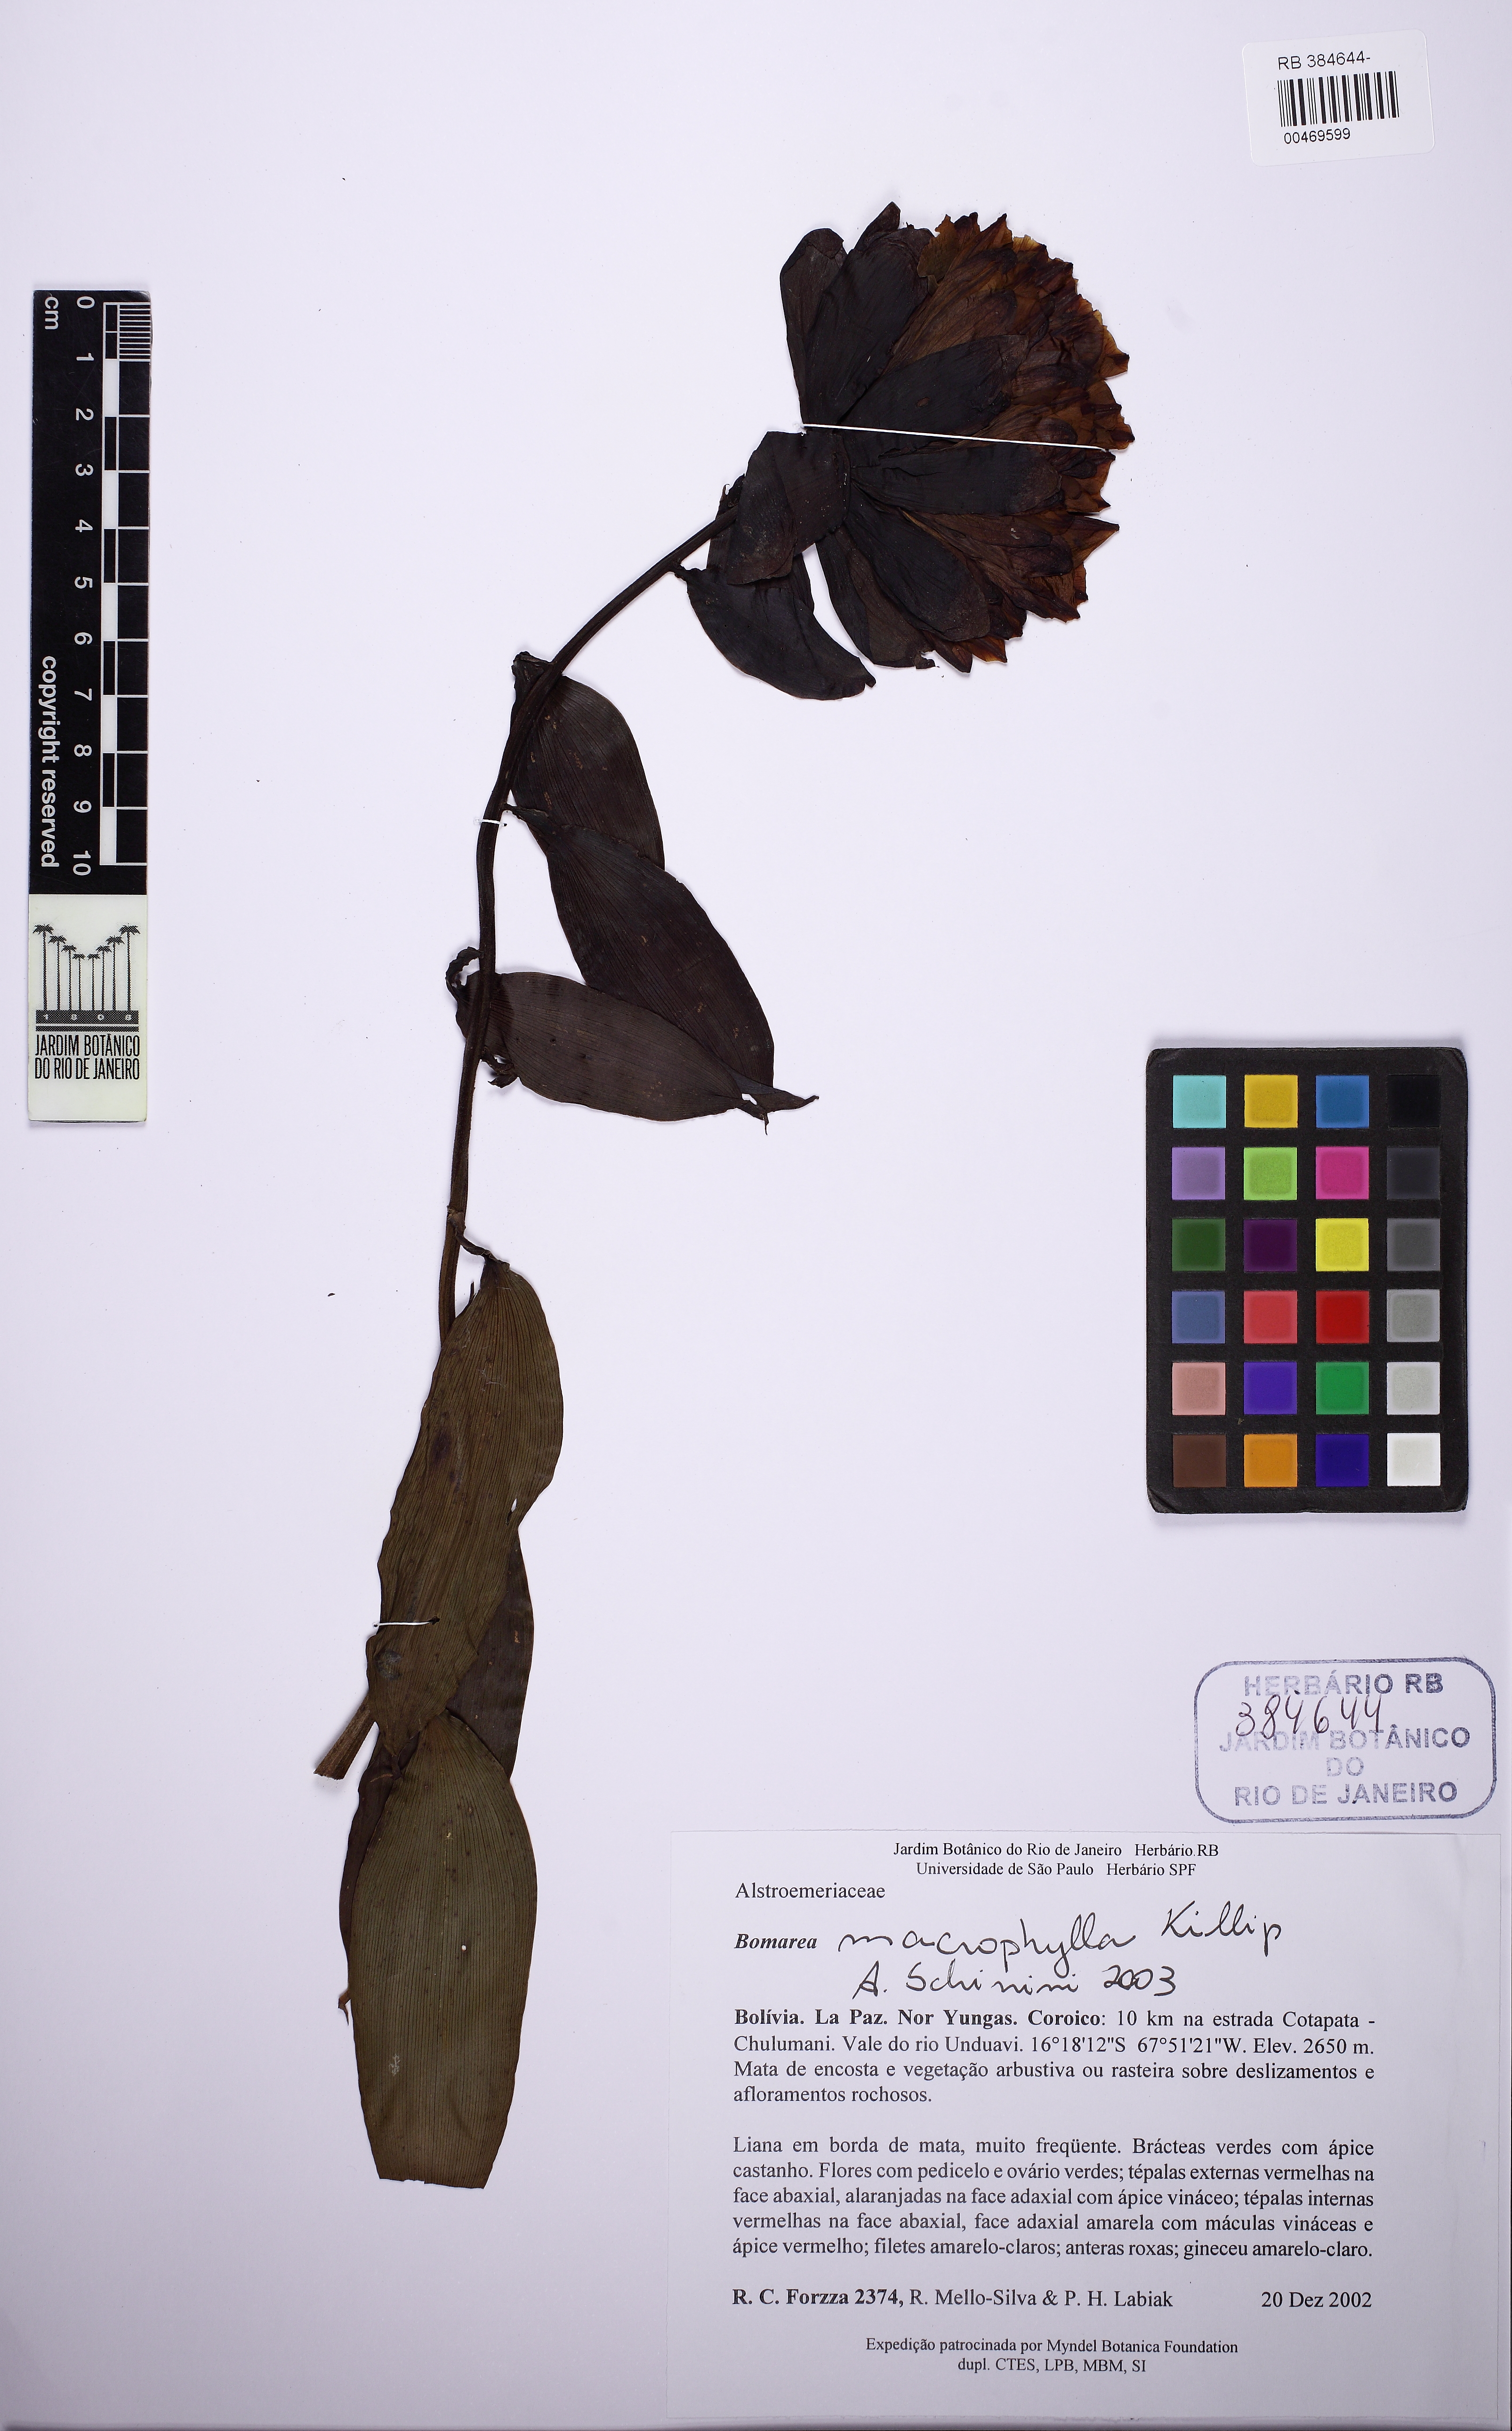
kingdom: Plantae
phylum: Tracheophyta
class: Liliopsida
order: Liliales
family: Alstroemeriaceae
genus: Bomarea
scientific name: Bomarea edulis
